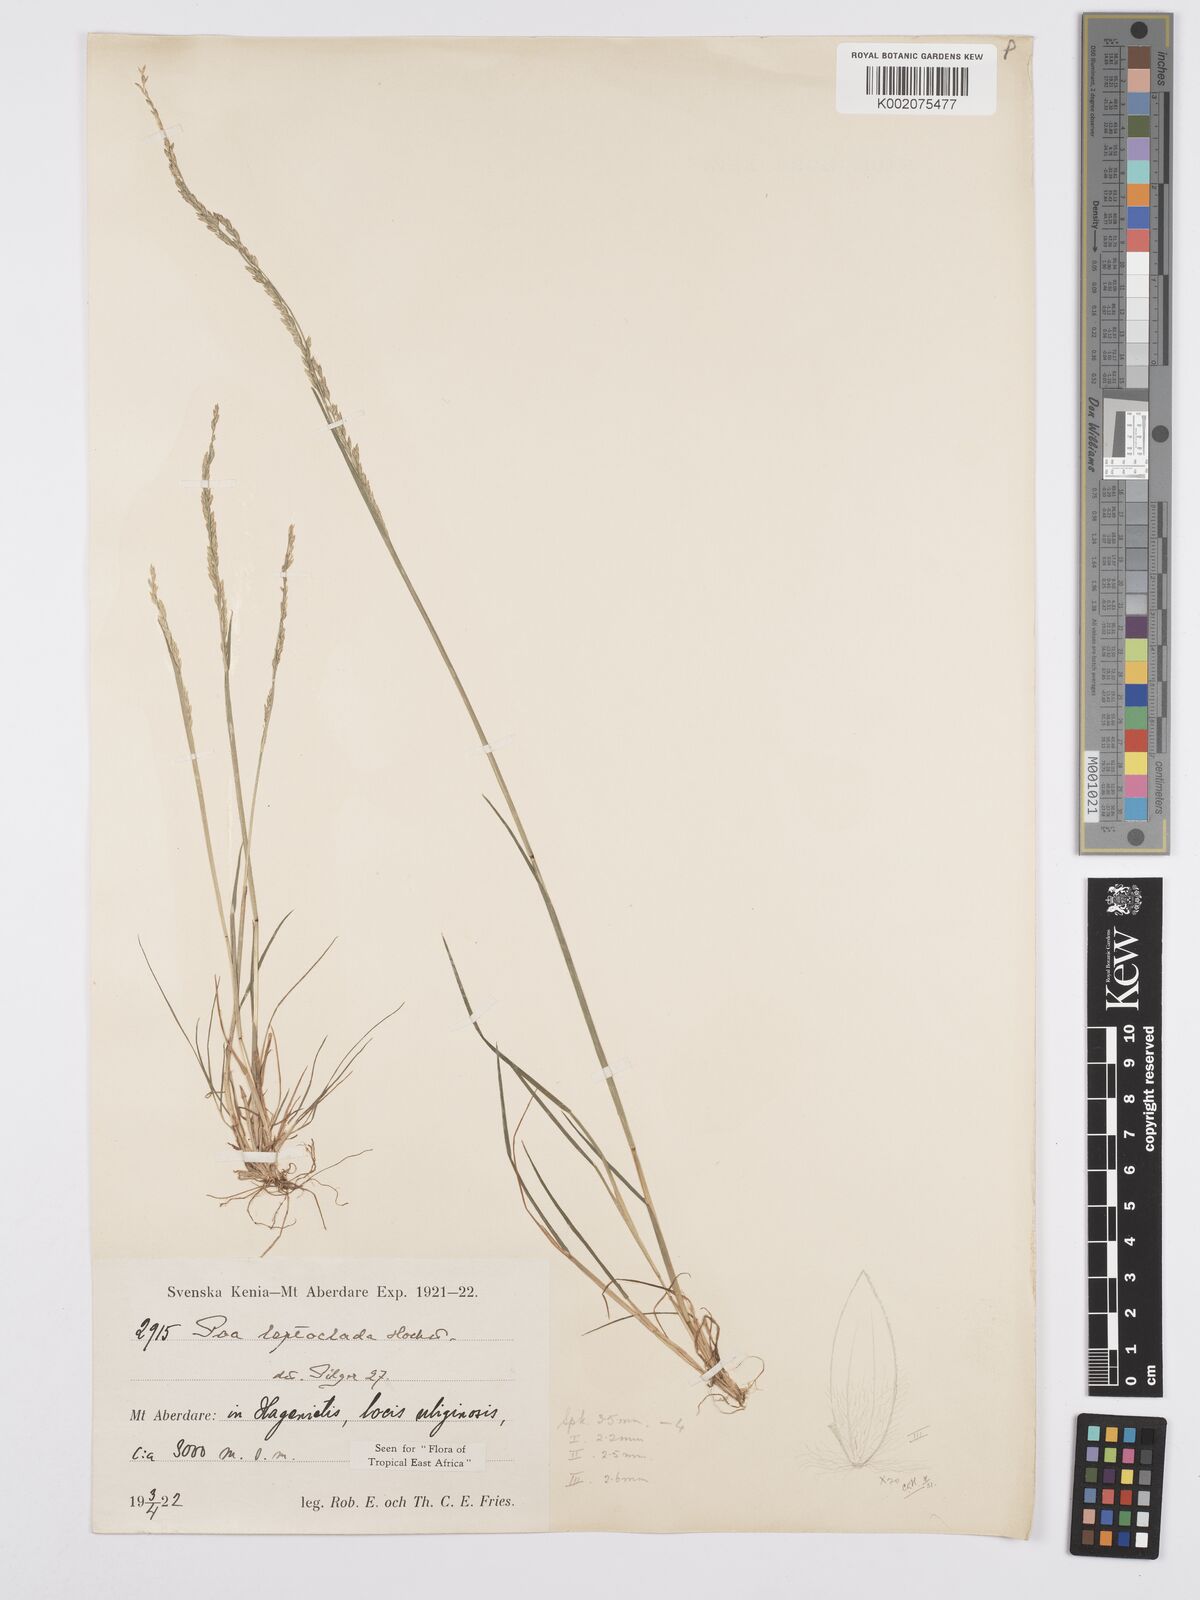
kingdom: Plantae
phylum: Tracheophyta
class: Liliopsida
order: Poales
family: Poaceae
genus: Poa
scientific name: Poa leptoclada
